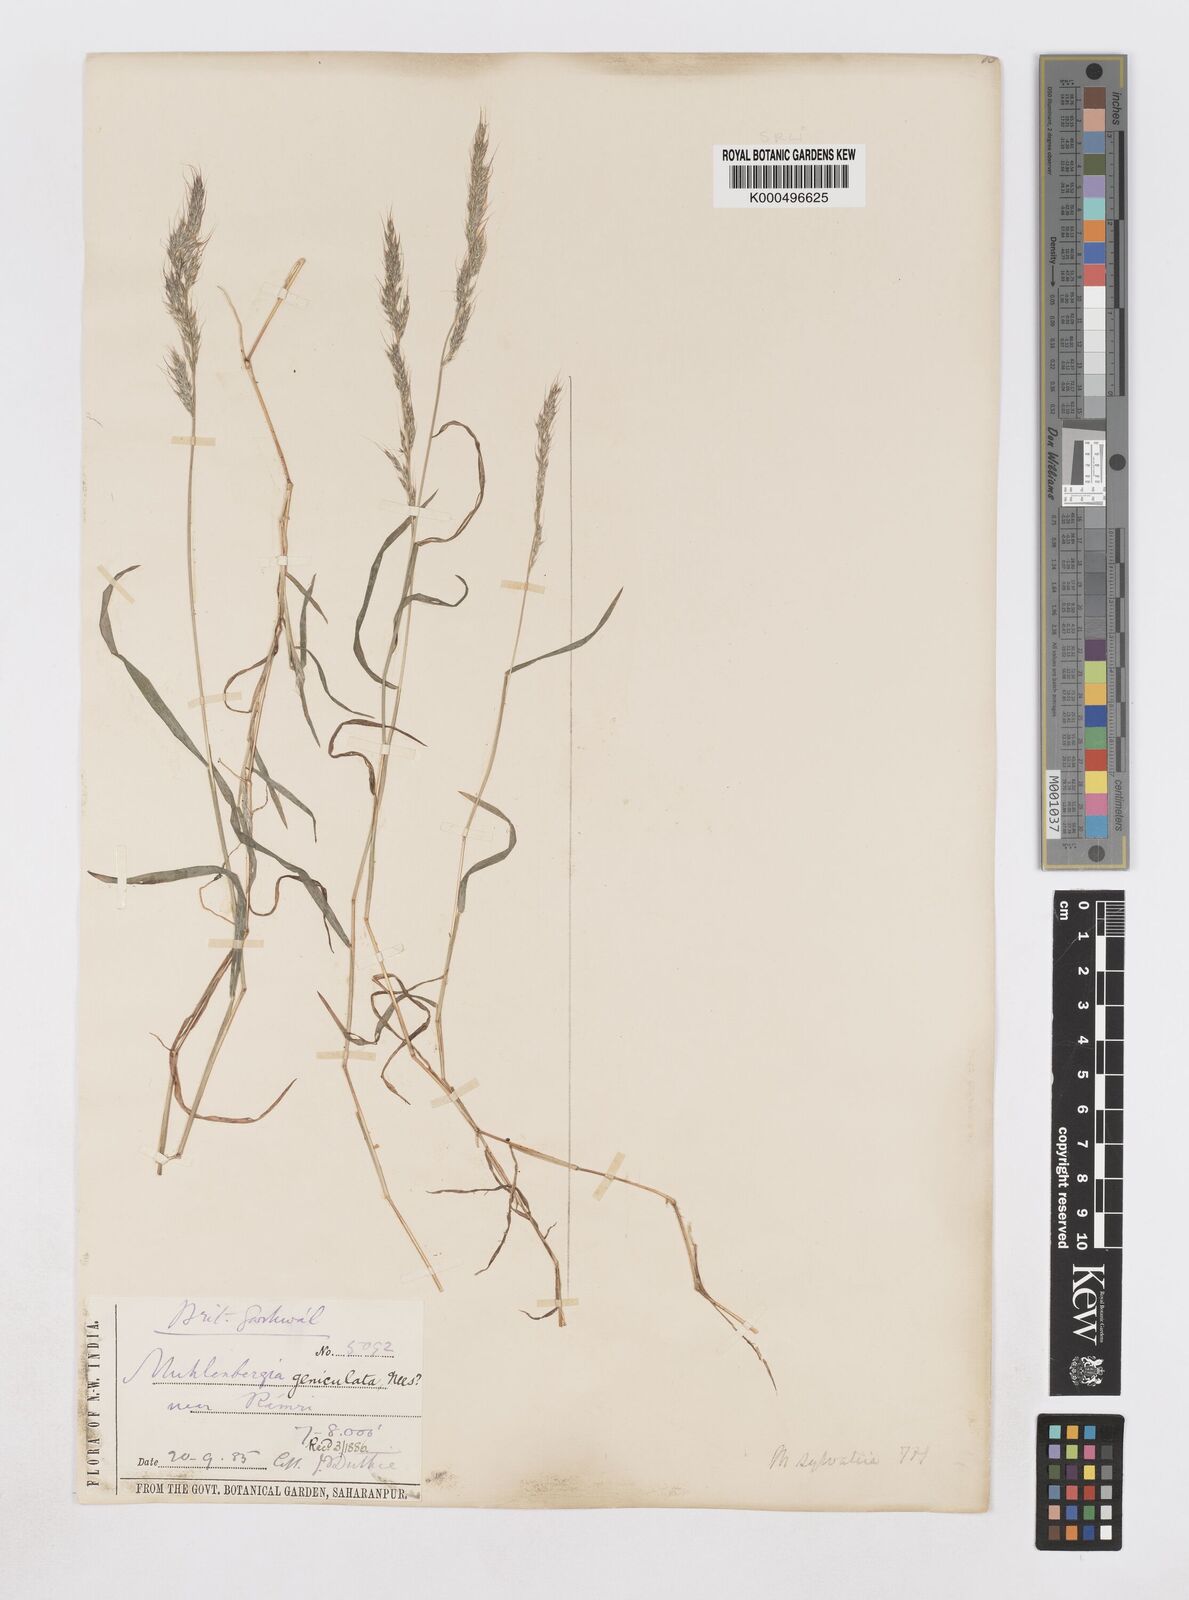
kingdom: Plantae
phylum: Tracheophyta
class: Liliopsida
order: Poales
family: Poaceae
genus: Muhlenbergia
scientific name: Muhlenbergia duthieana
